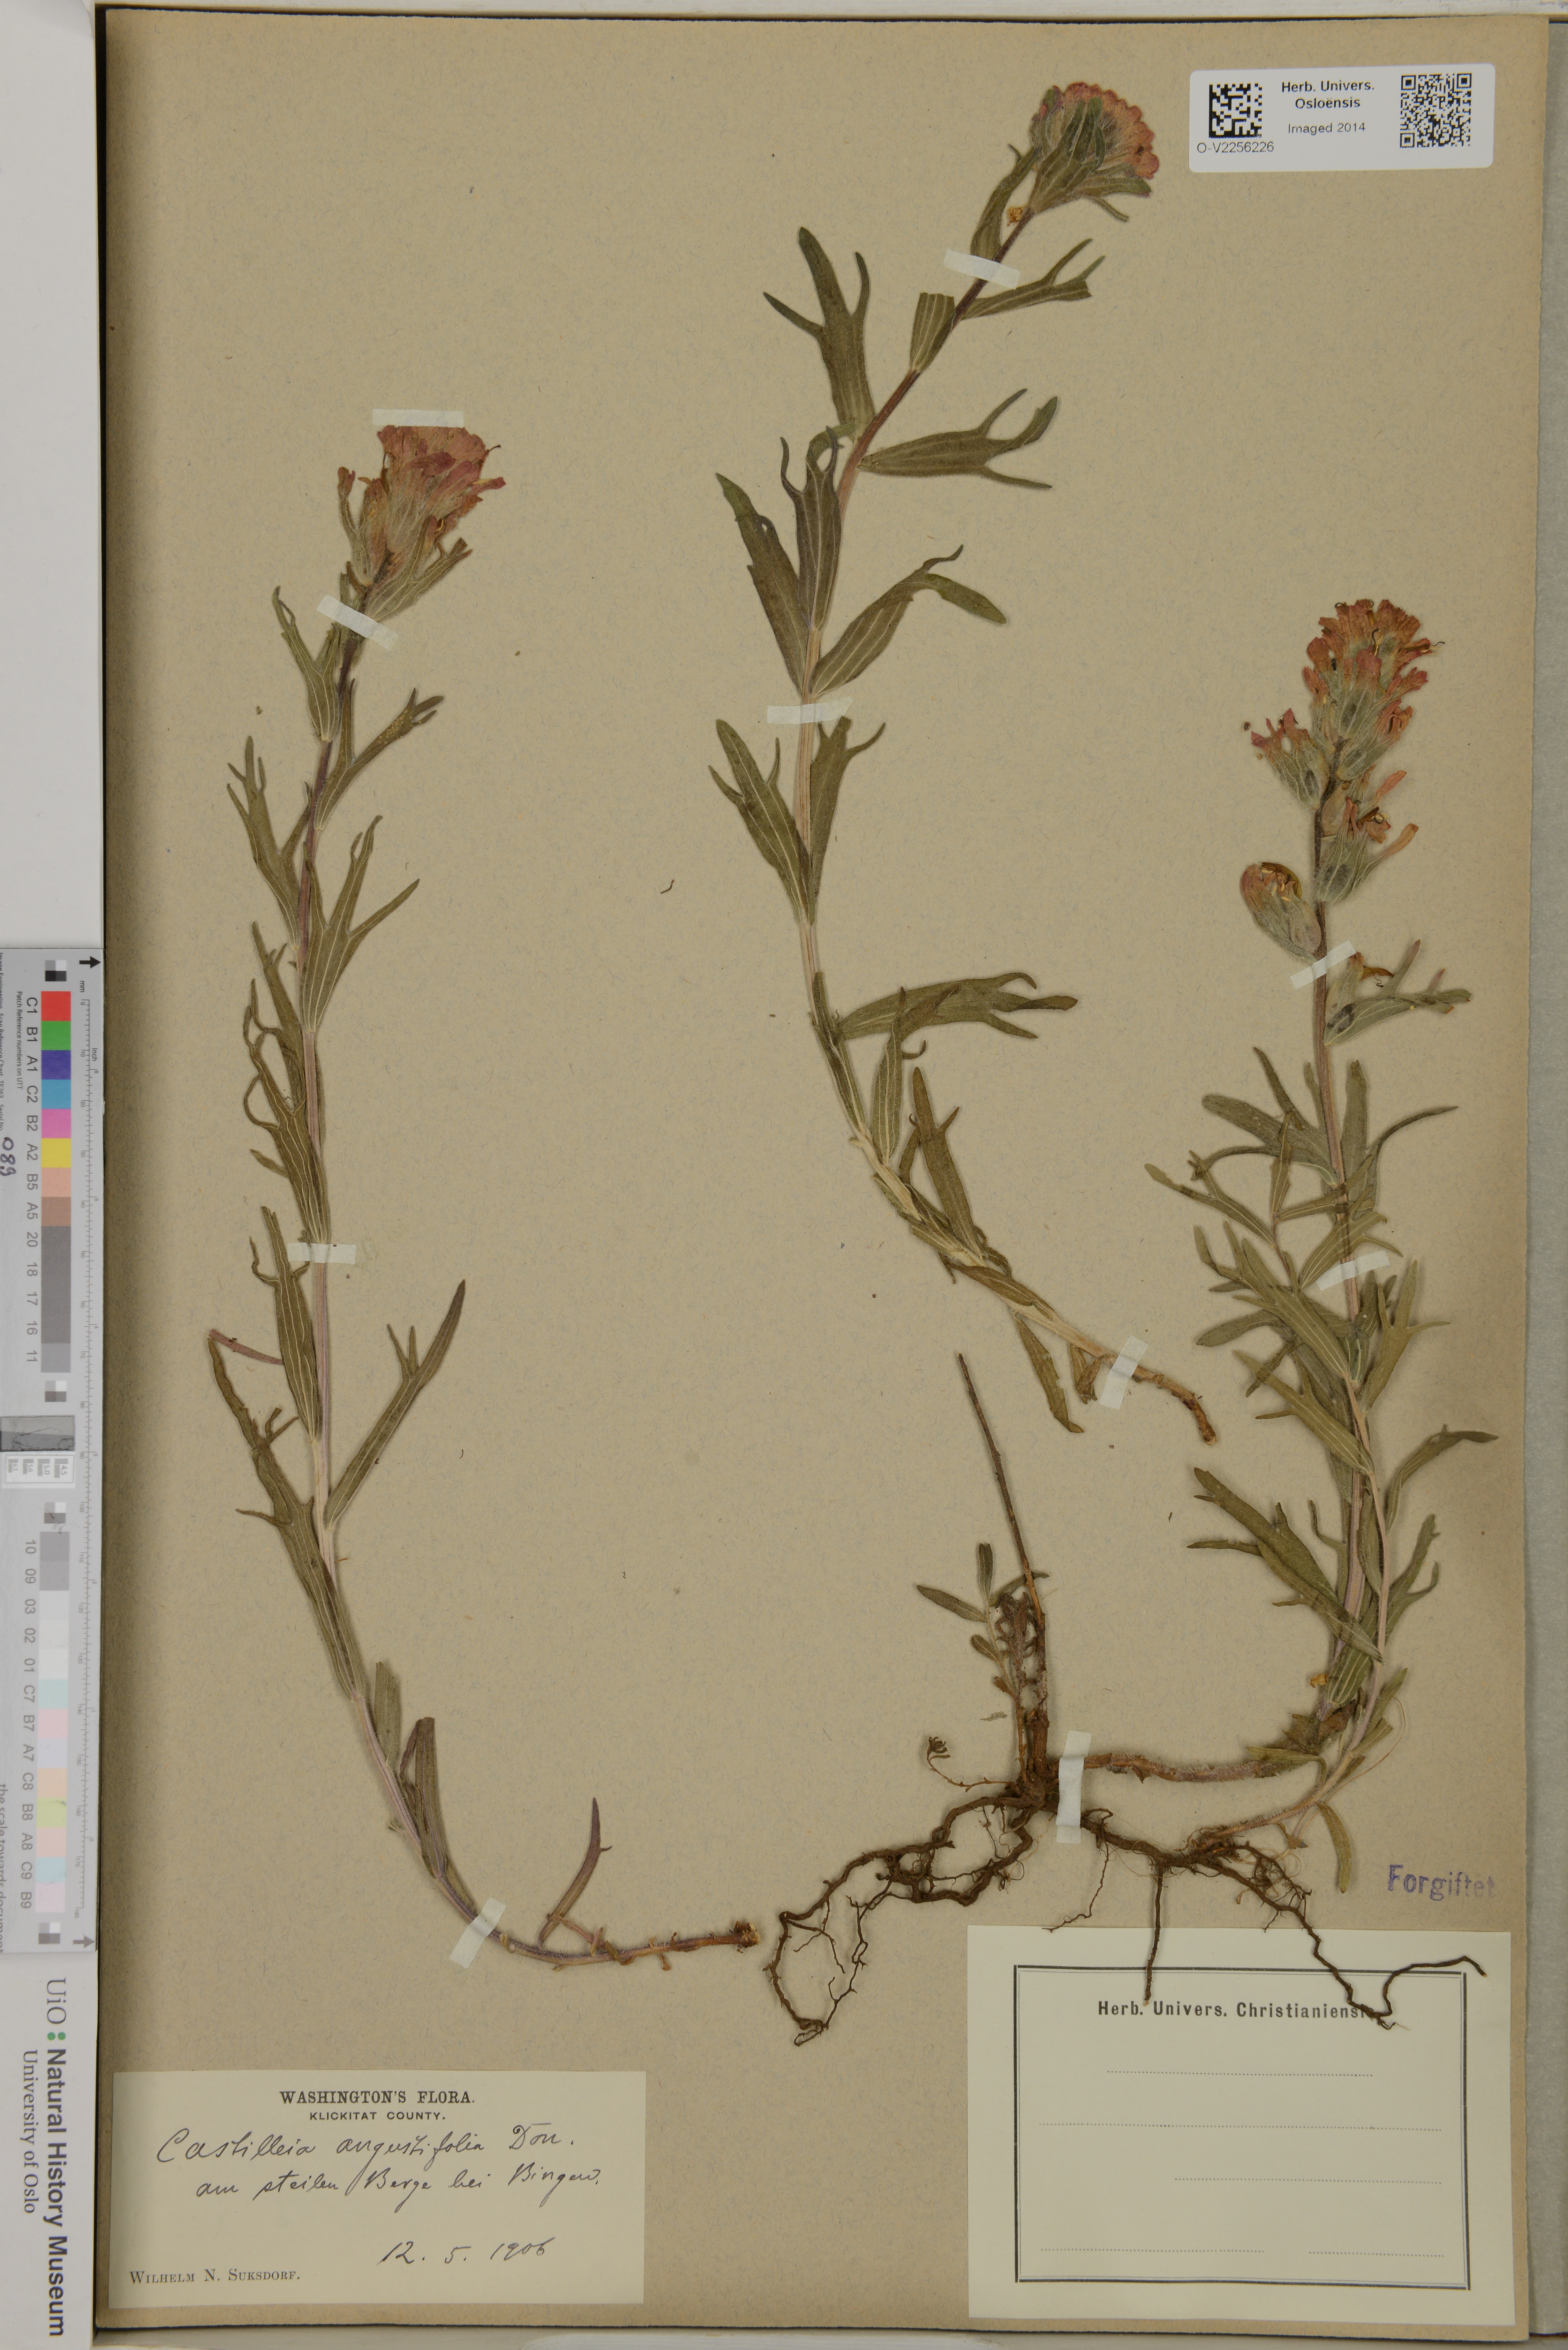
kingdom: Plantae
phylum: Tracheophyta
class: Magnoliopsida
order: Lamiales
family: Orobanchaceae
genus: Castilleja
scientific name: Castilleja angustifolia
